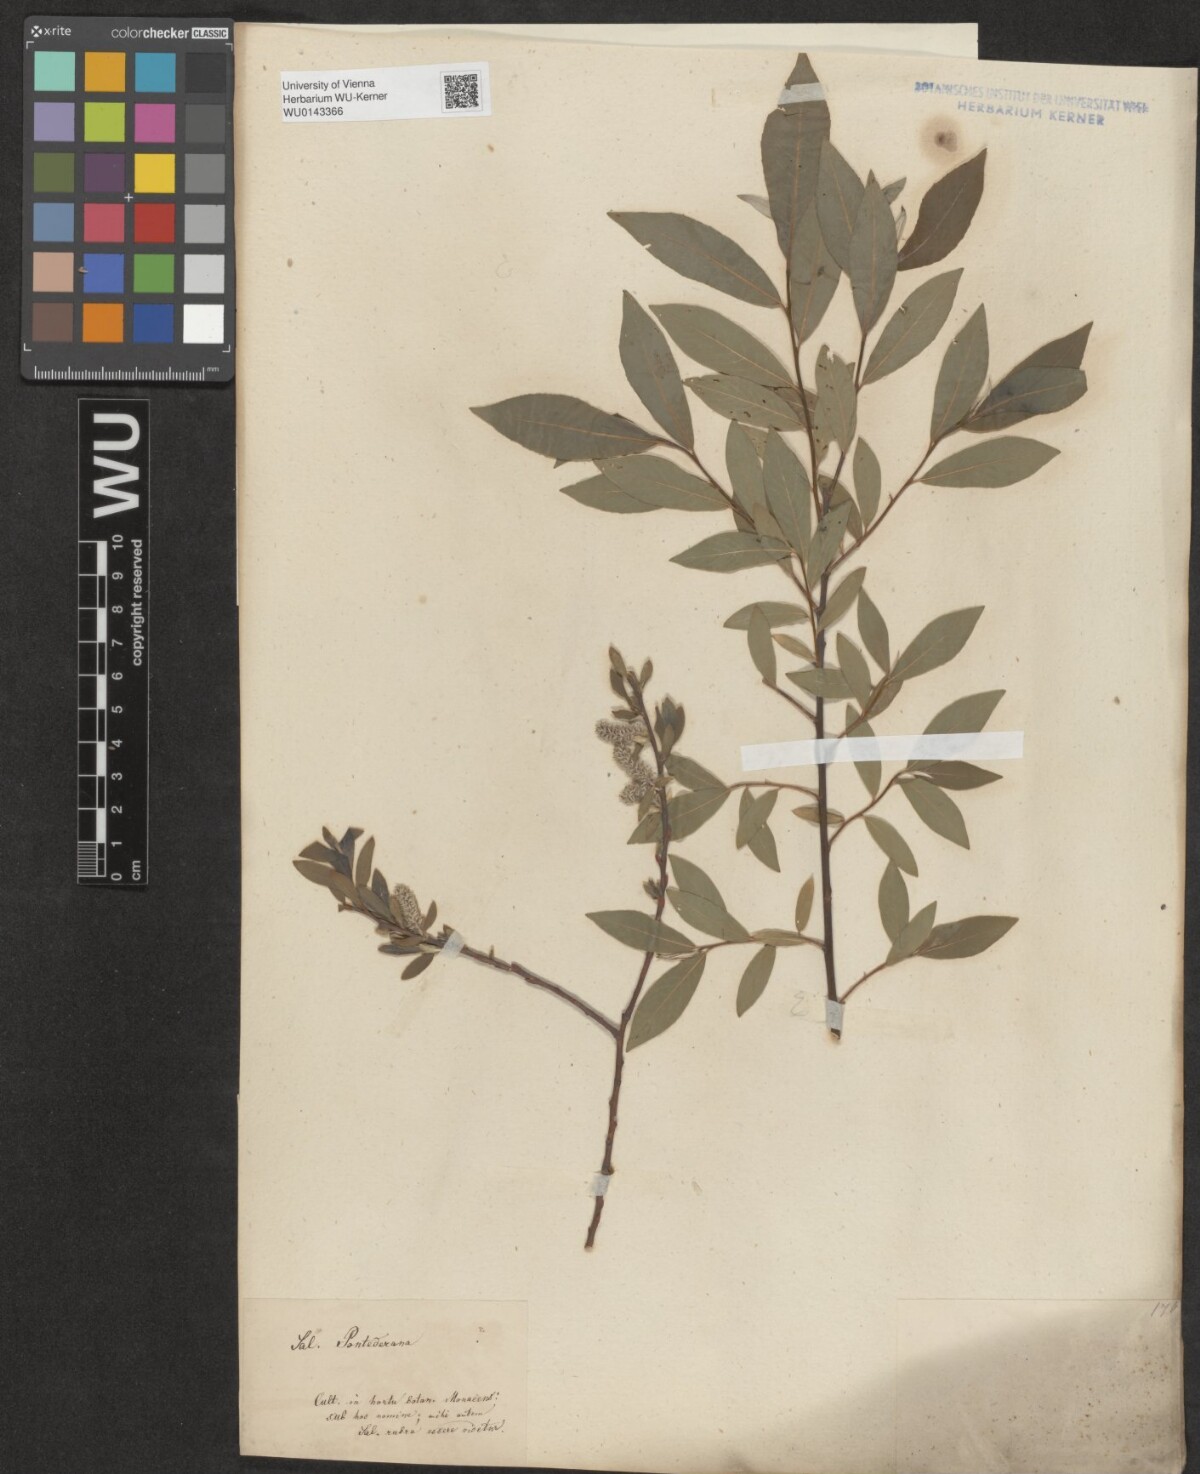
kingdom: Plantae
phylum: Tracheophyta
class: Magnoliopsida
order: Malpighiales
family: Salicaceae
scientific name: Salicaceae
